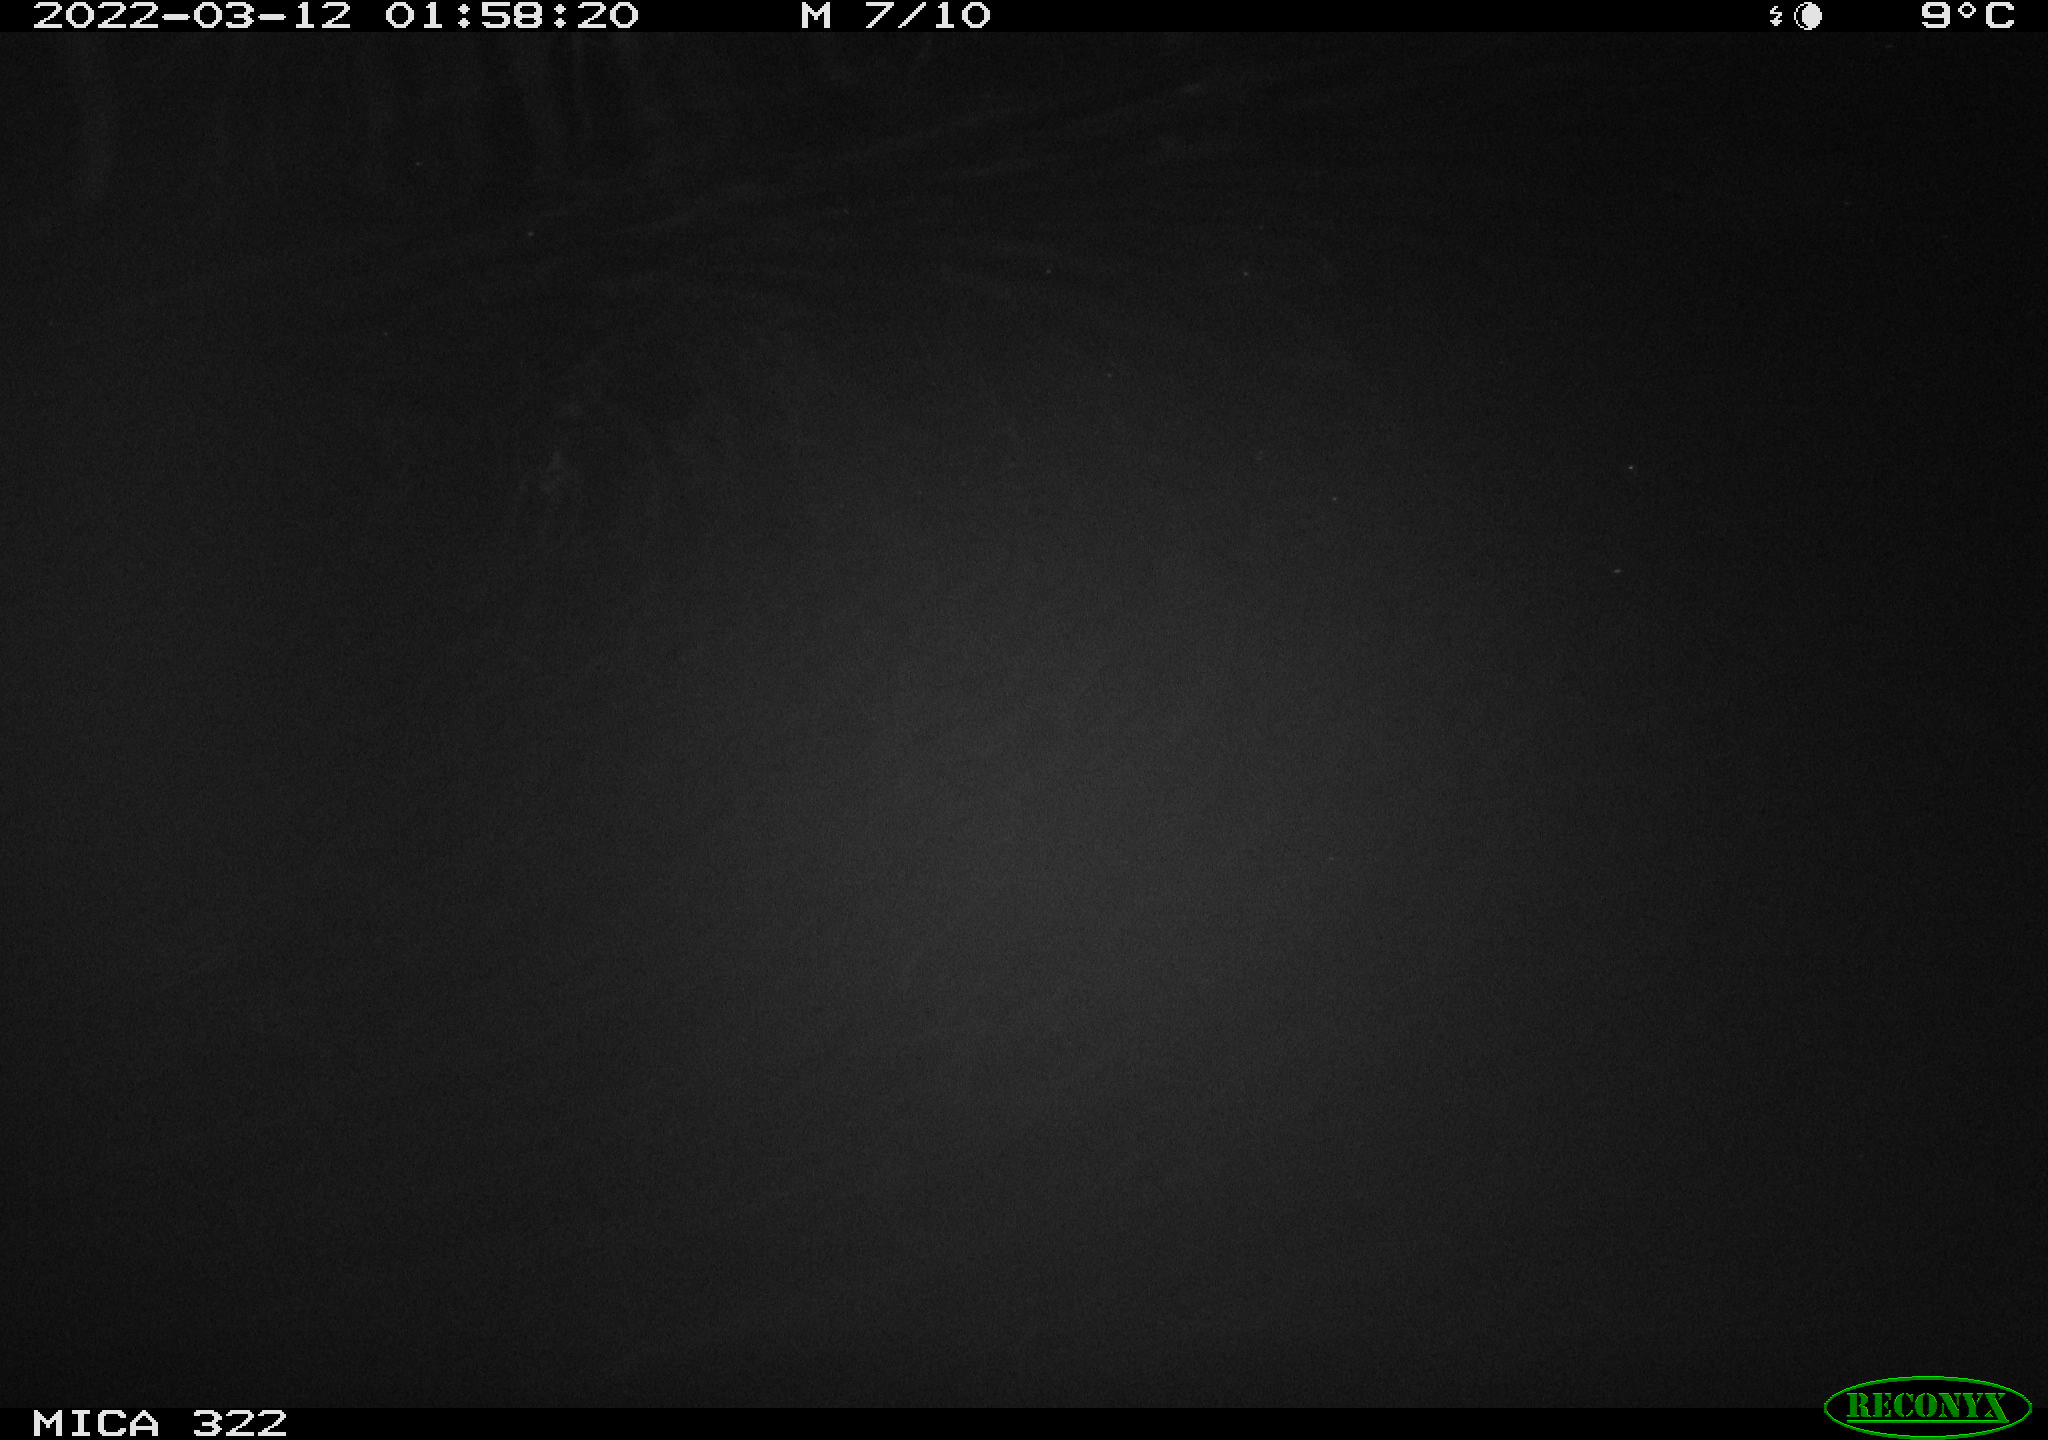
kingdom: Animalia
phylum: Chordata
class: Mammalia
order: Rodentia
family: Muridae
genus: Rattus
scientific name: Rattus norvegicus
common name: Brown rat
